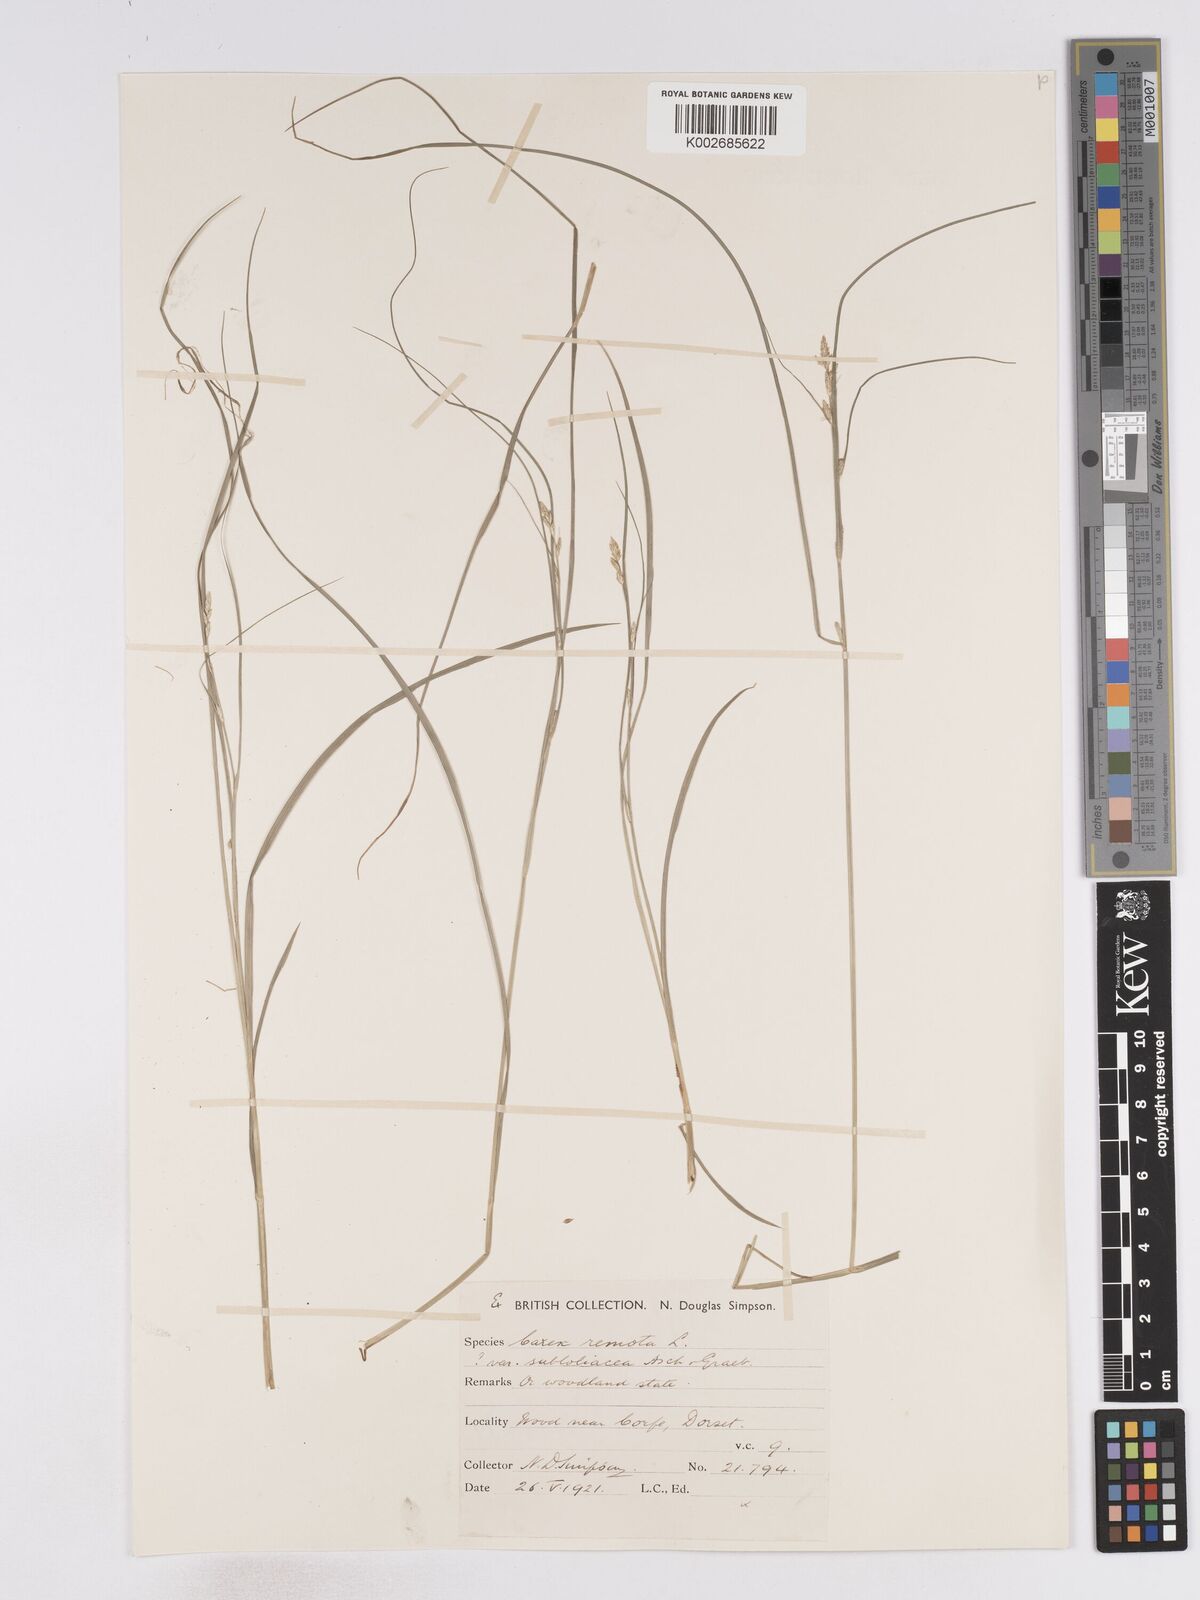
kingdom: Plantae
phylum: Tracheophyta
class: Liliopsida
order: Poales
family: Cyperaceae
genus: Carex
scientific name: Carex remota
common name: Remote sedge
